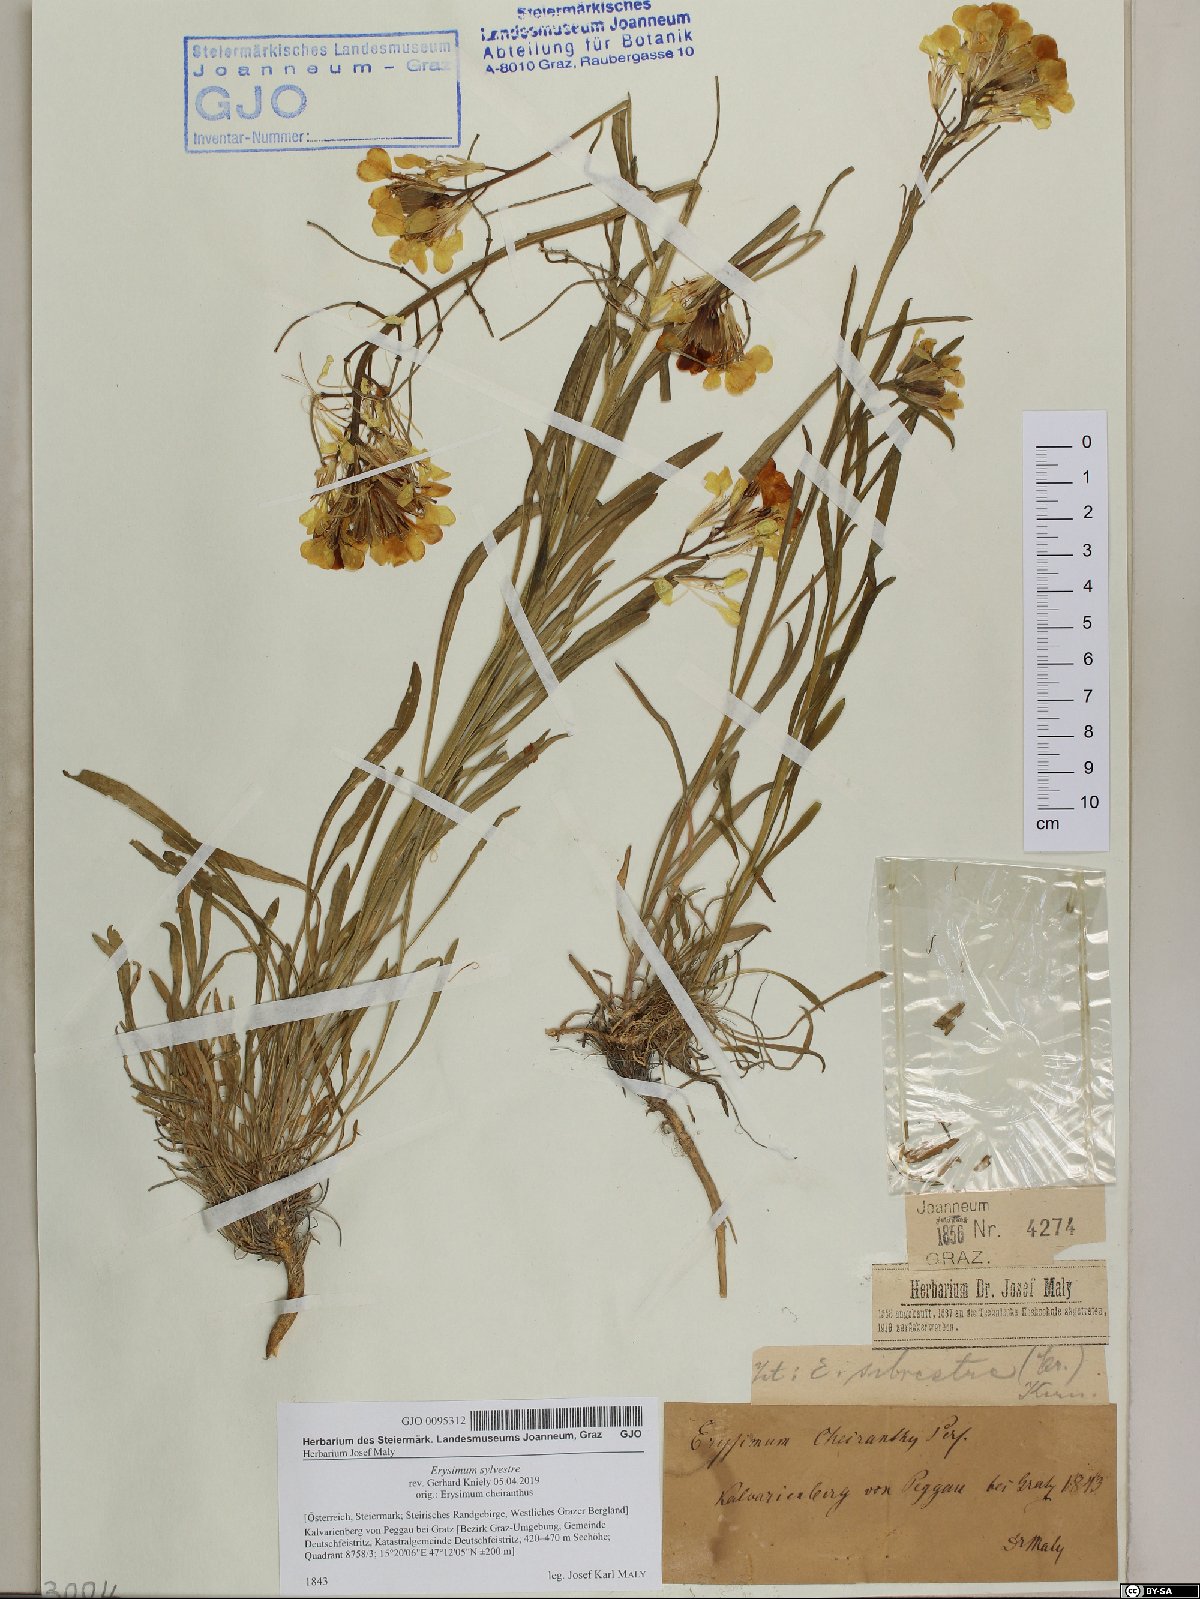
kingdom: Plantae
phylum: Tracheophyta
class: Magnoliopsida
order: Brassicales
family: Brassicaceae
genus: Erysimum
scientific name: Erysimum sylvestre
